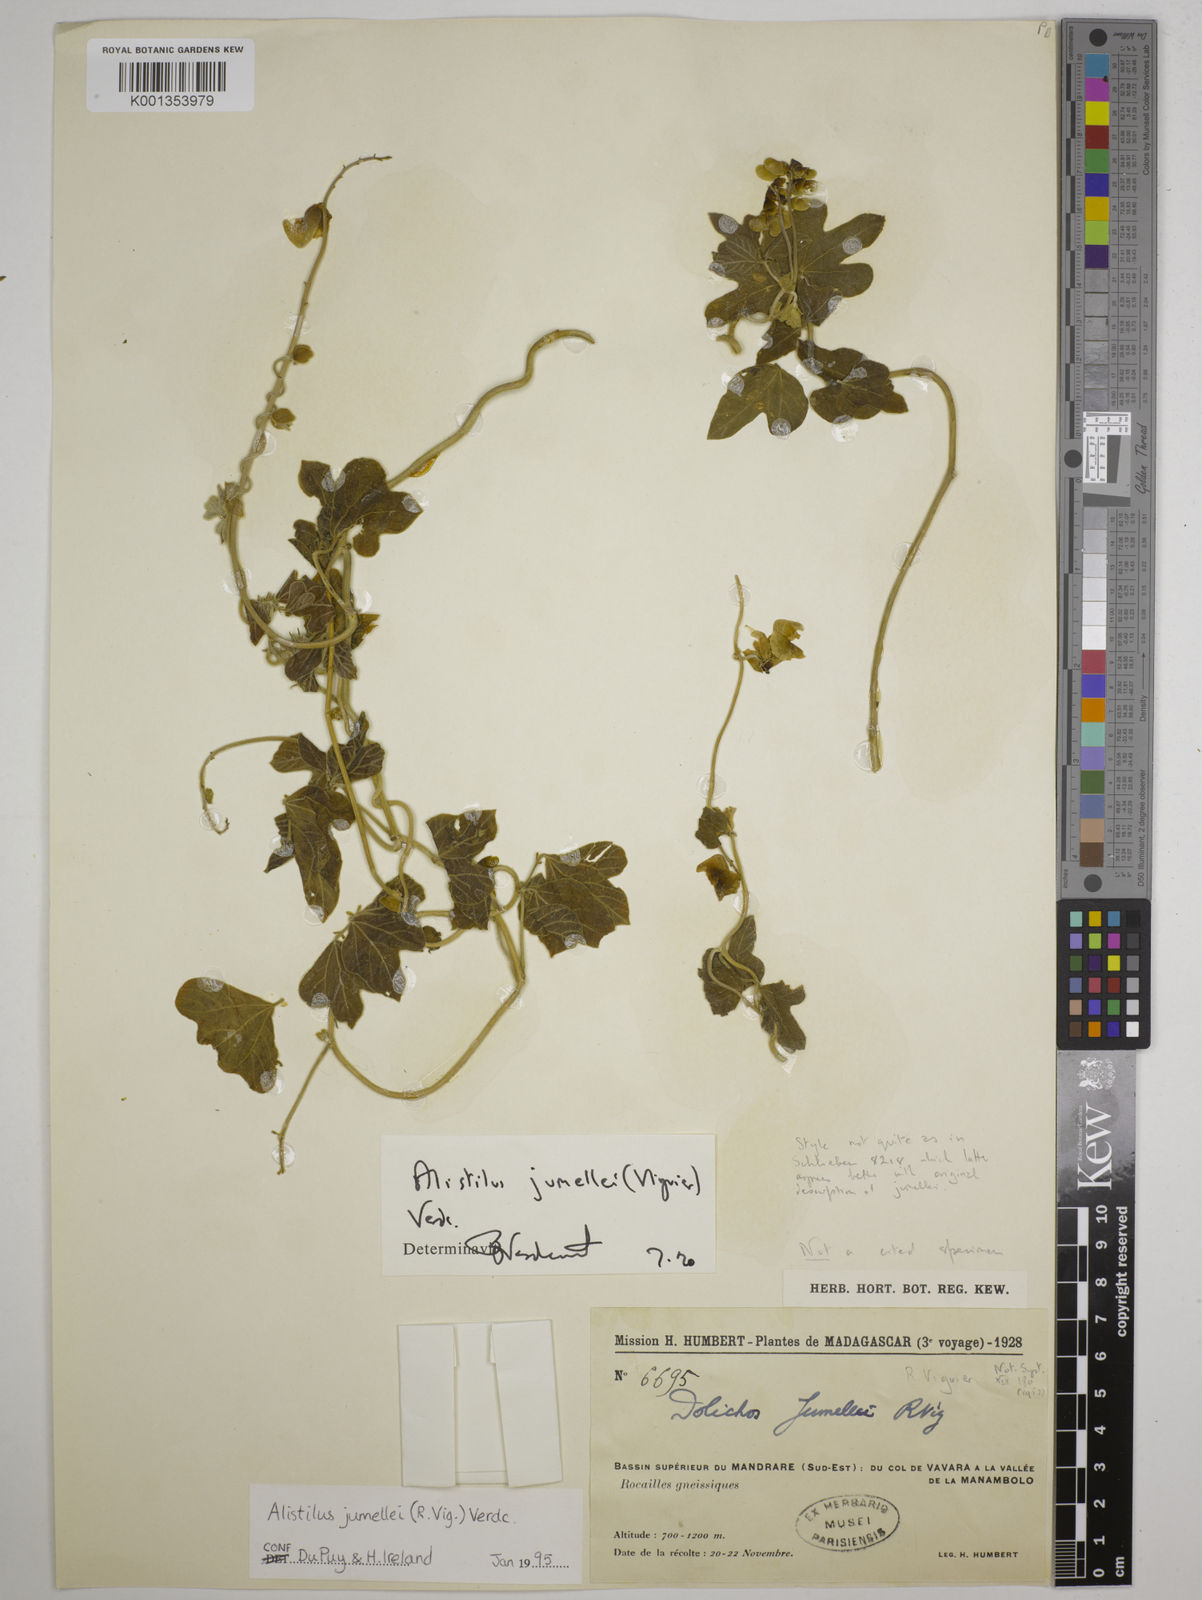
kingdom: Plantae
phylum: Tracheophyta
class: Magnoliopsida
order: Fabales
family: Fabaceae
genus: Alistilus
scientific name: Alistilus jumellei
